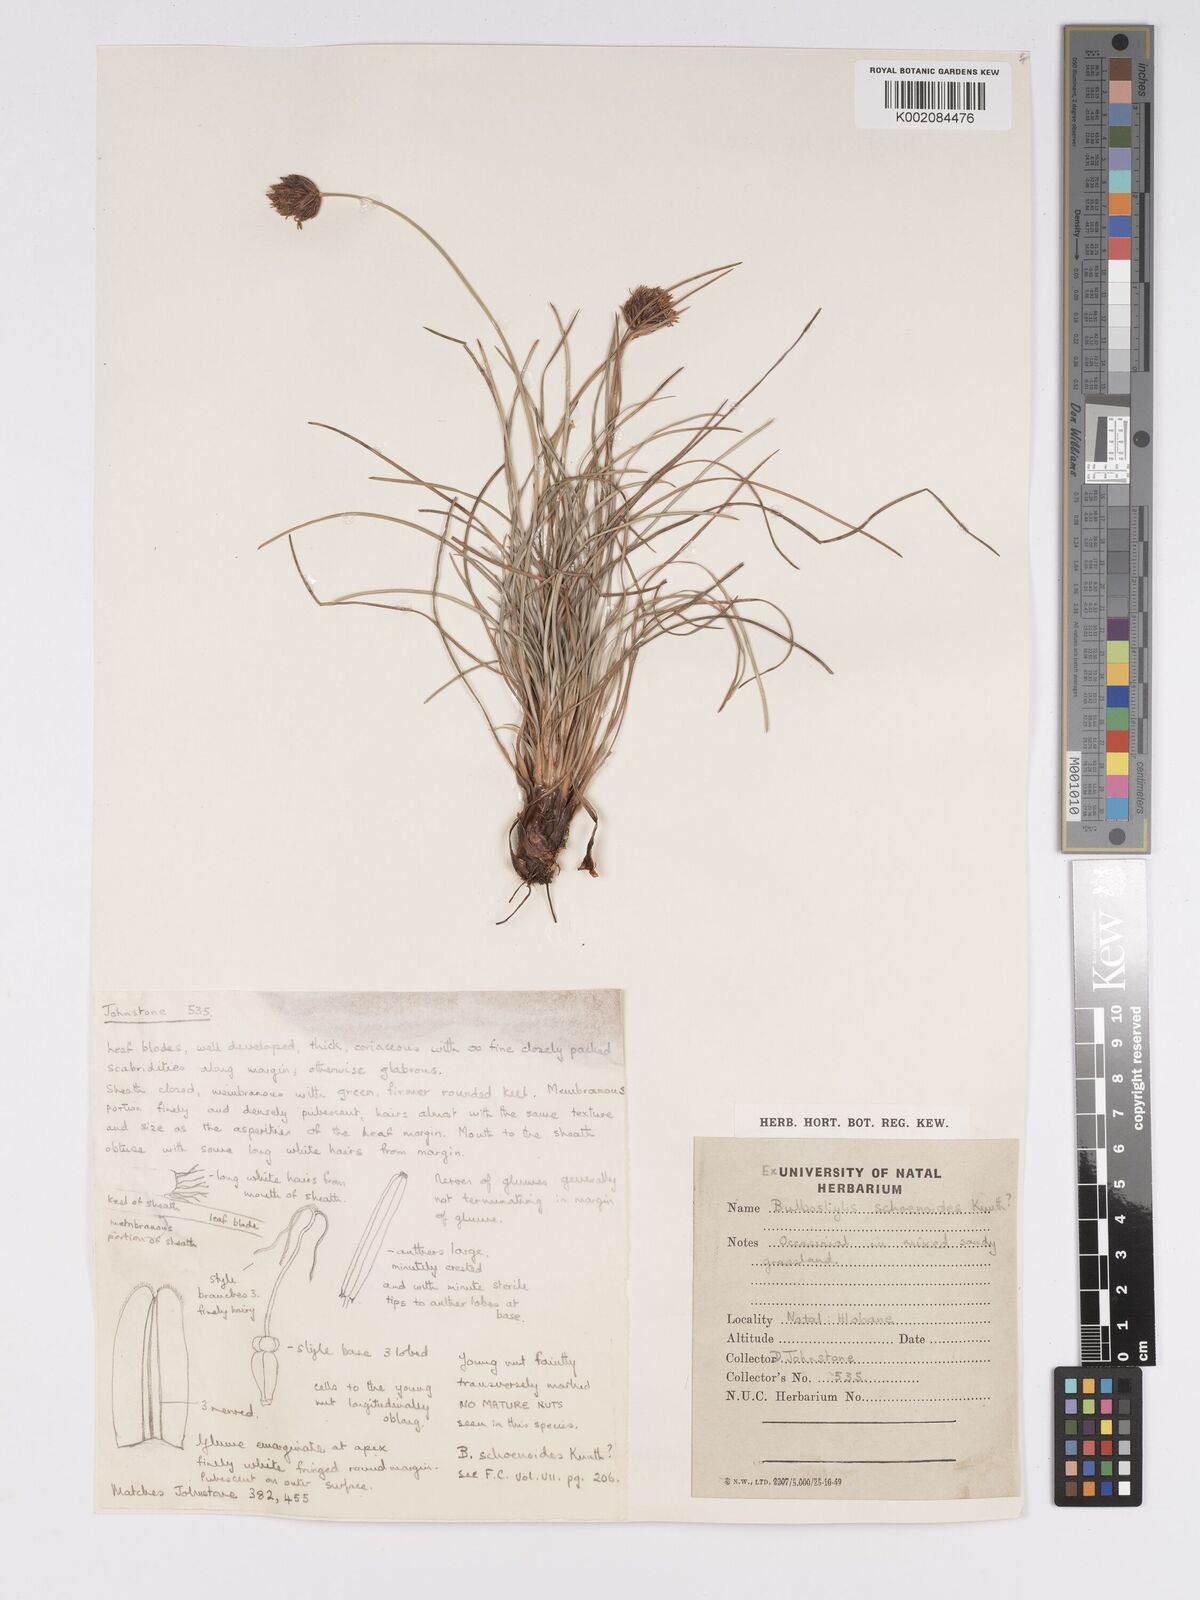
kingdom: Plantae
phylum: Tracheophyta
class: Liliopsida
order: Poales
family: Cyperaceae
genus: Bulbostylis
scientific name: Bulbostylis schoenoides
